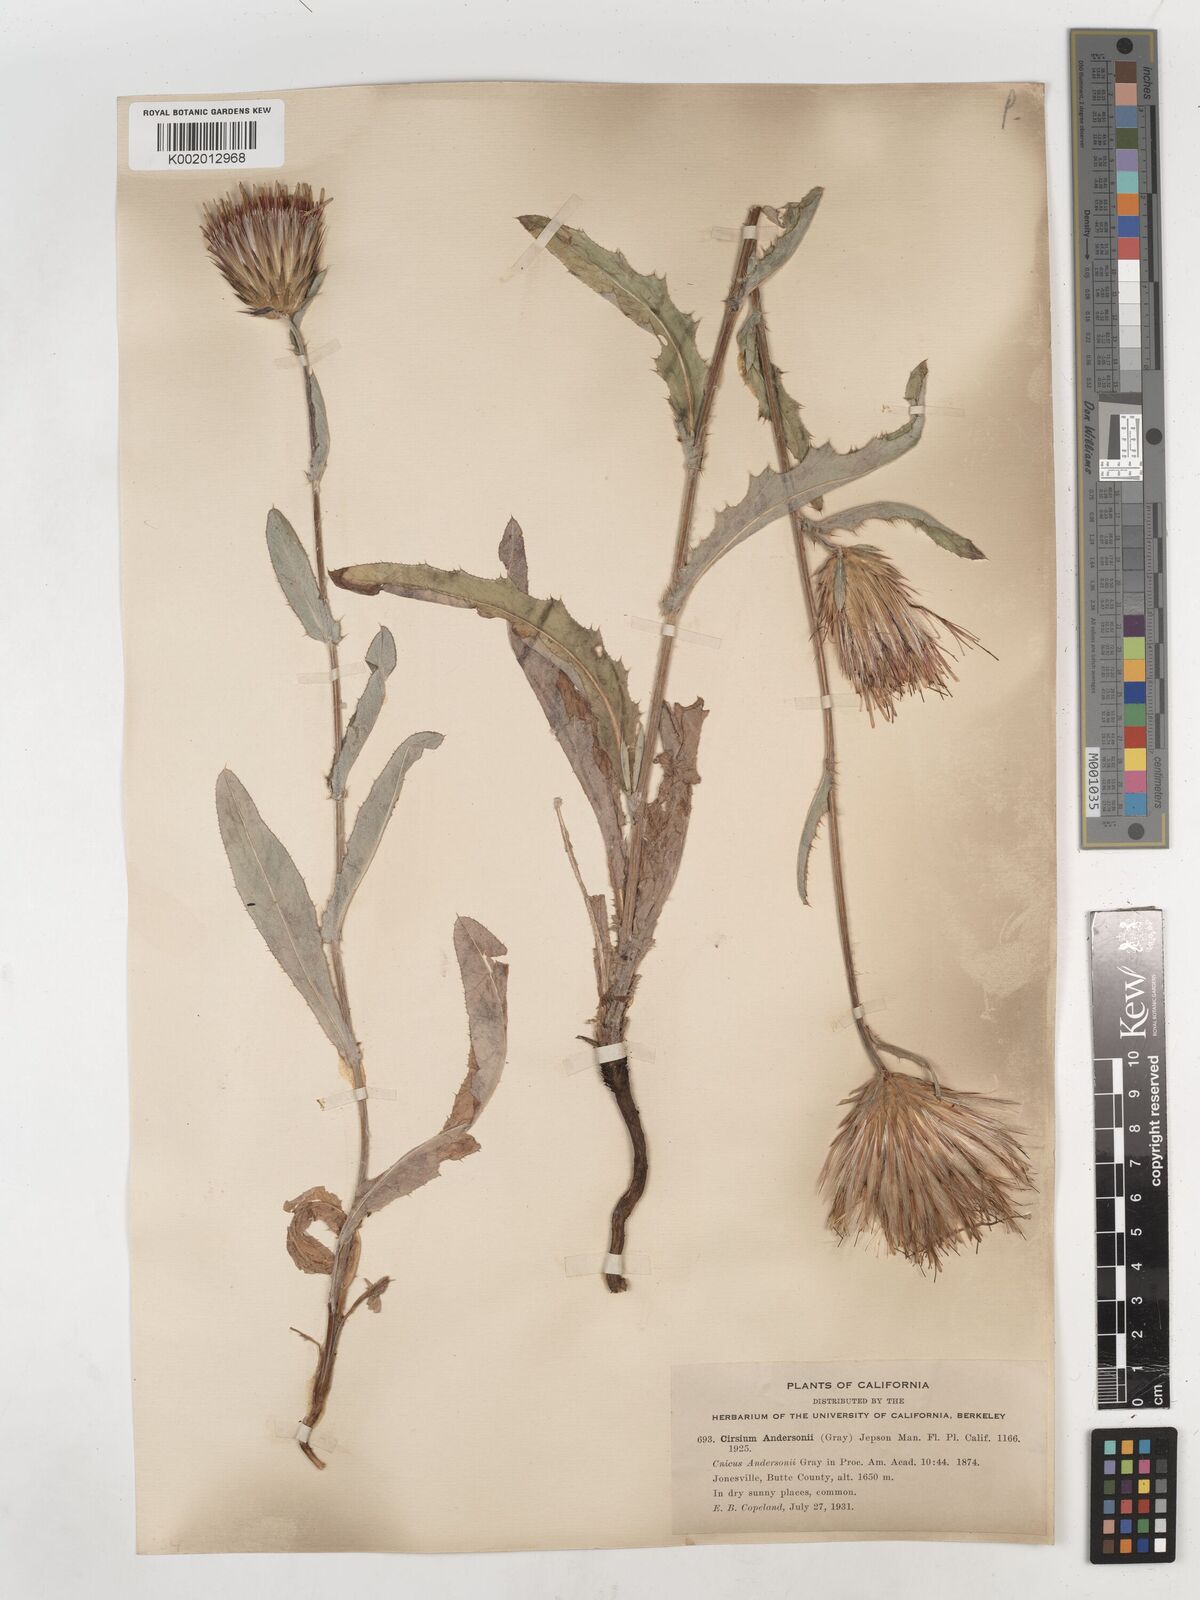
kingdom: Plantae
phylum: Tracheophyta
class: Magnoliopsida
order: Asterales
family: Asteraceae
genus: Cirsium
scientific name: Cirsium
